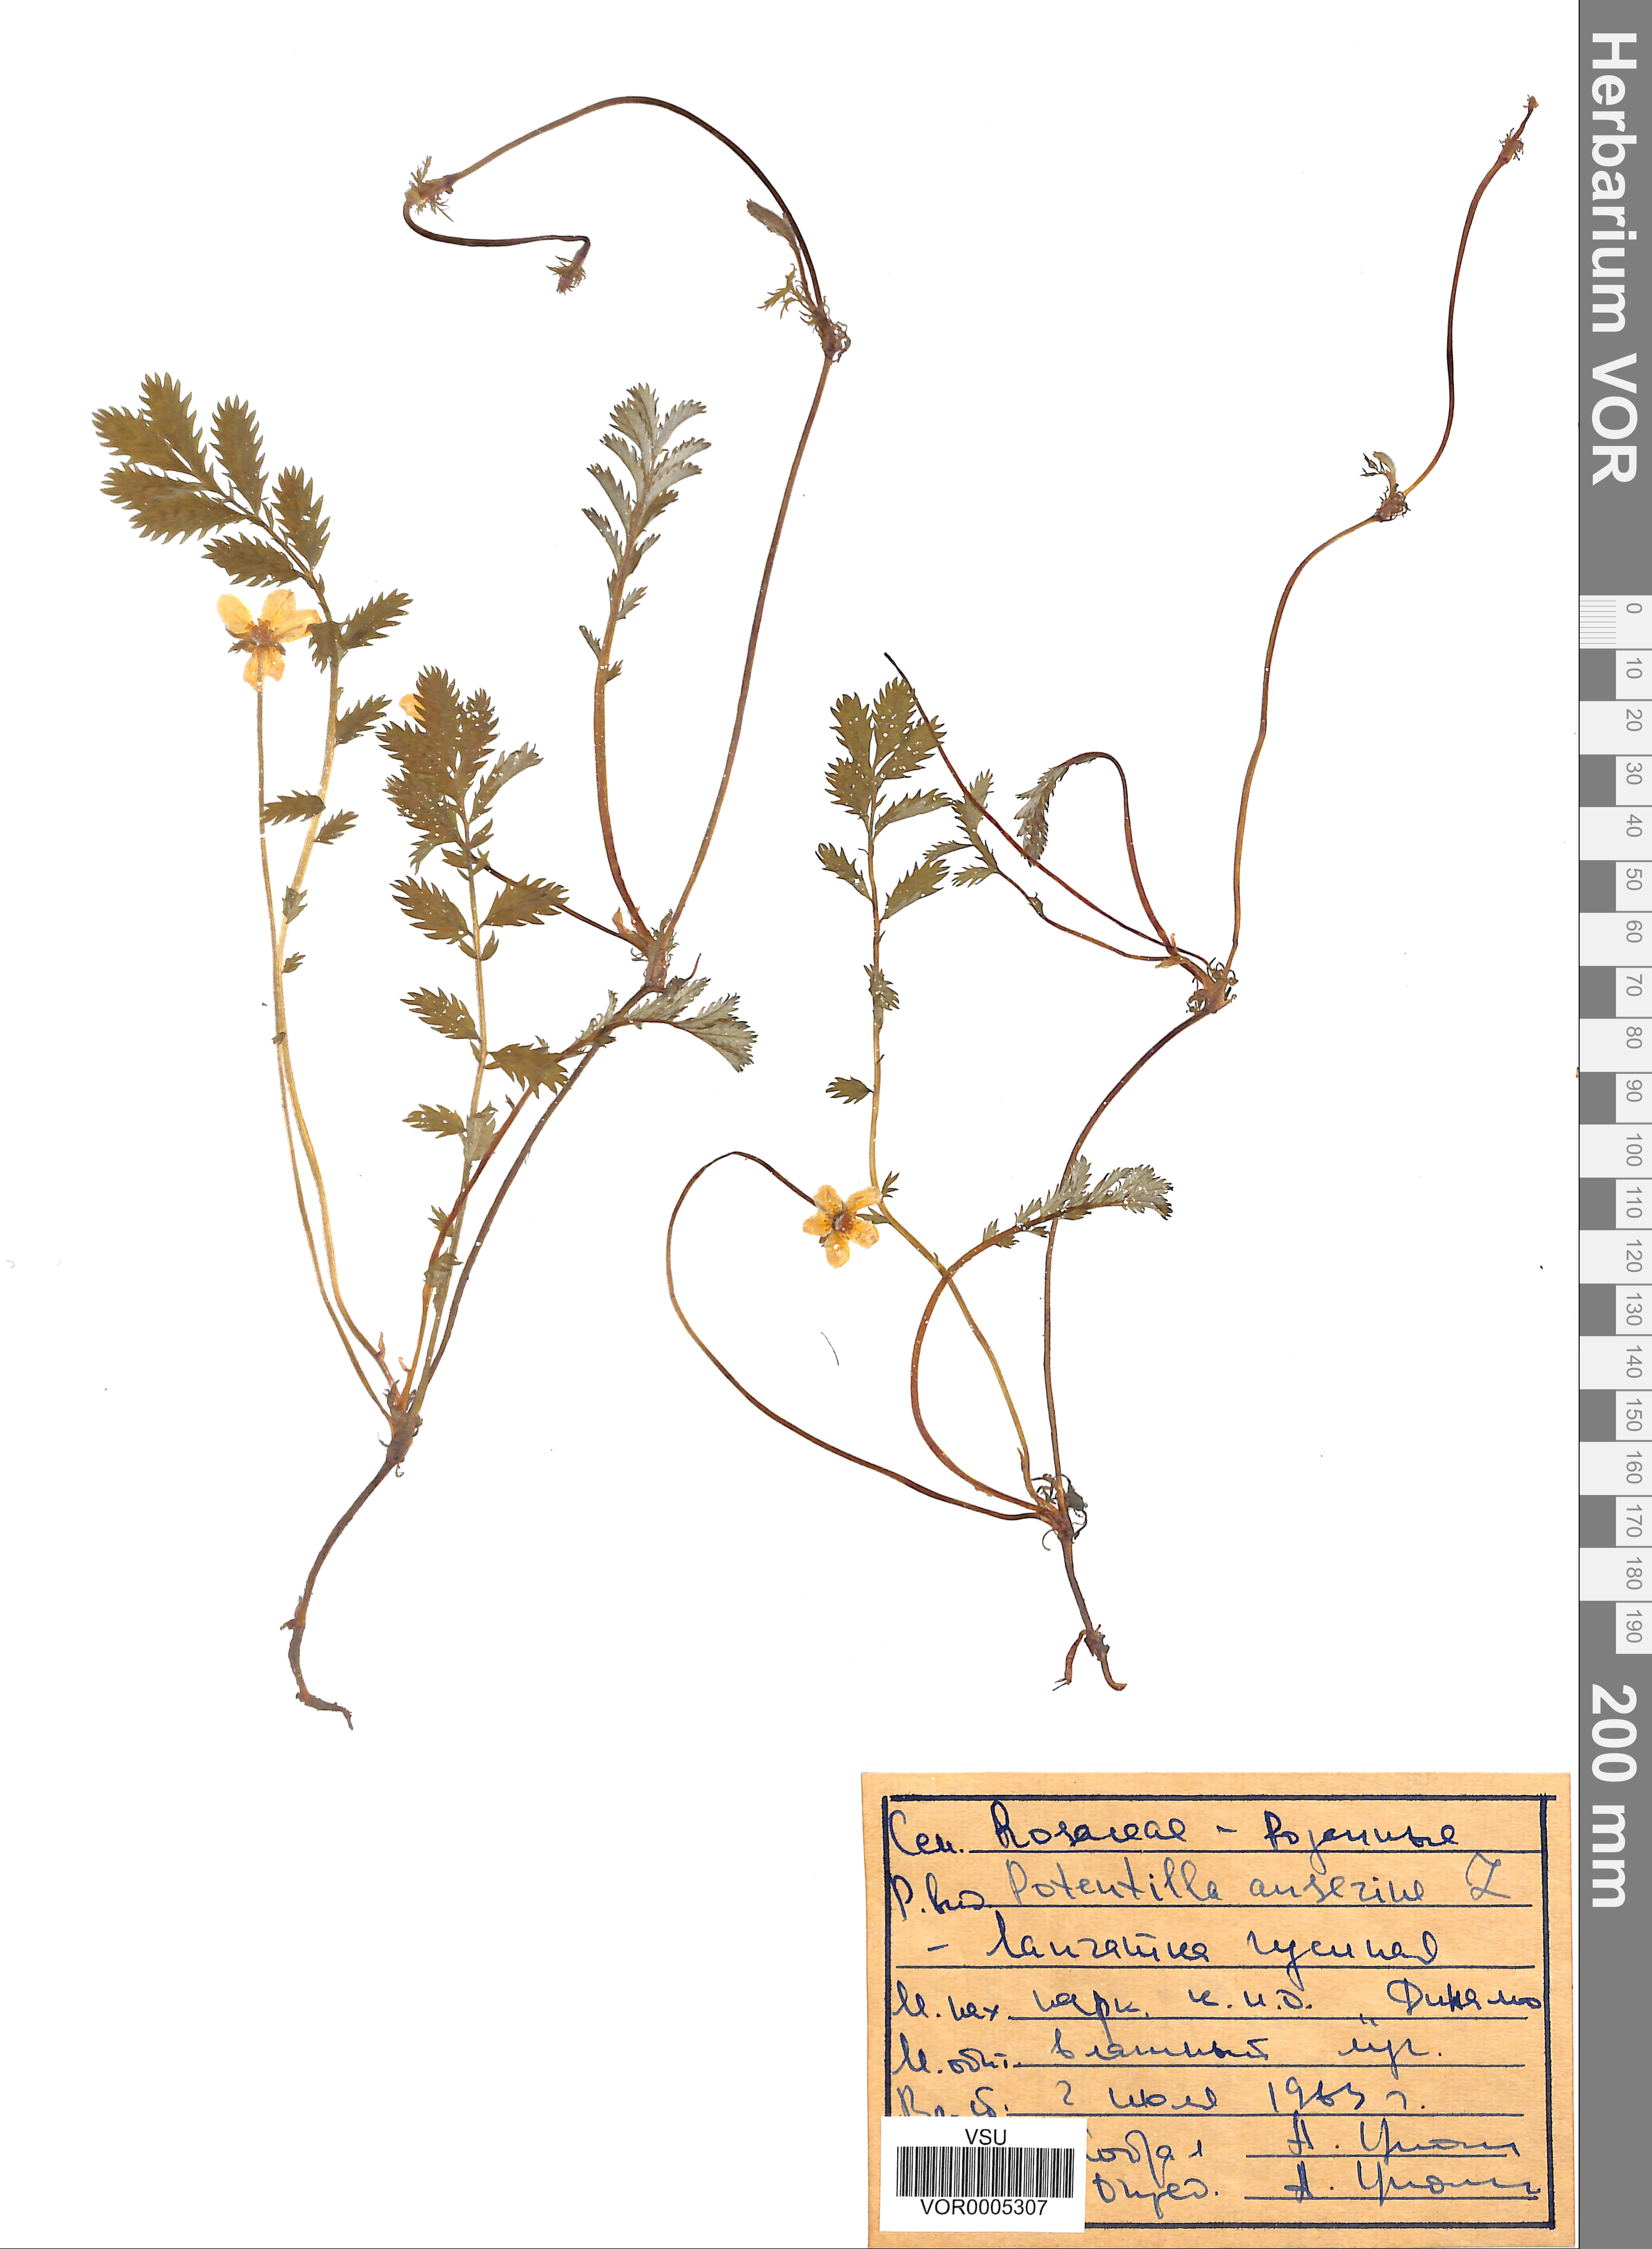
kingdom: Plantae
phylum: Tracheophyta
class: Magnoliopsida
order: Rosales
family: Rosaceae
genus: Argentina
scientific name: Argentina anserina
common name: Common silverweed
